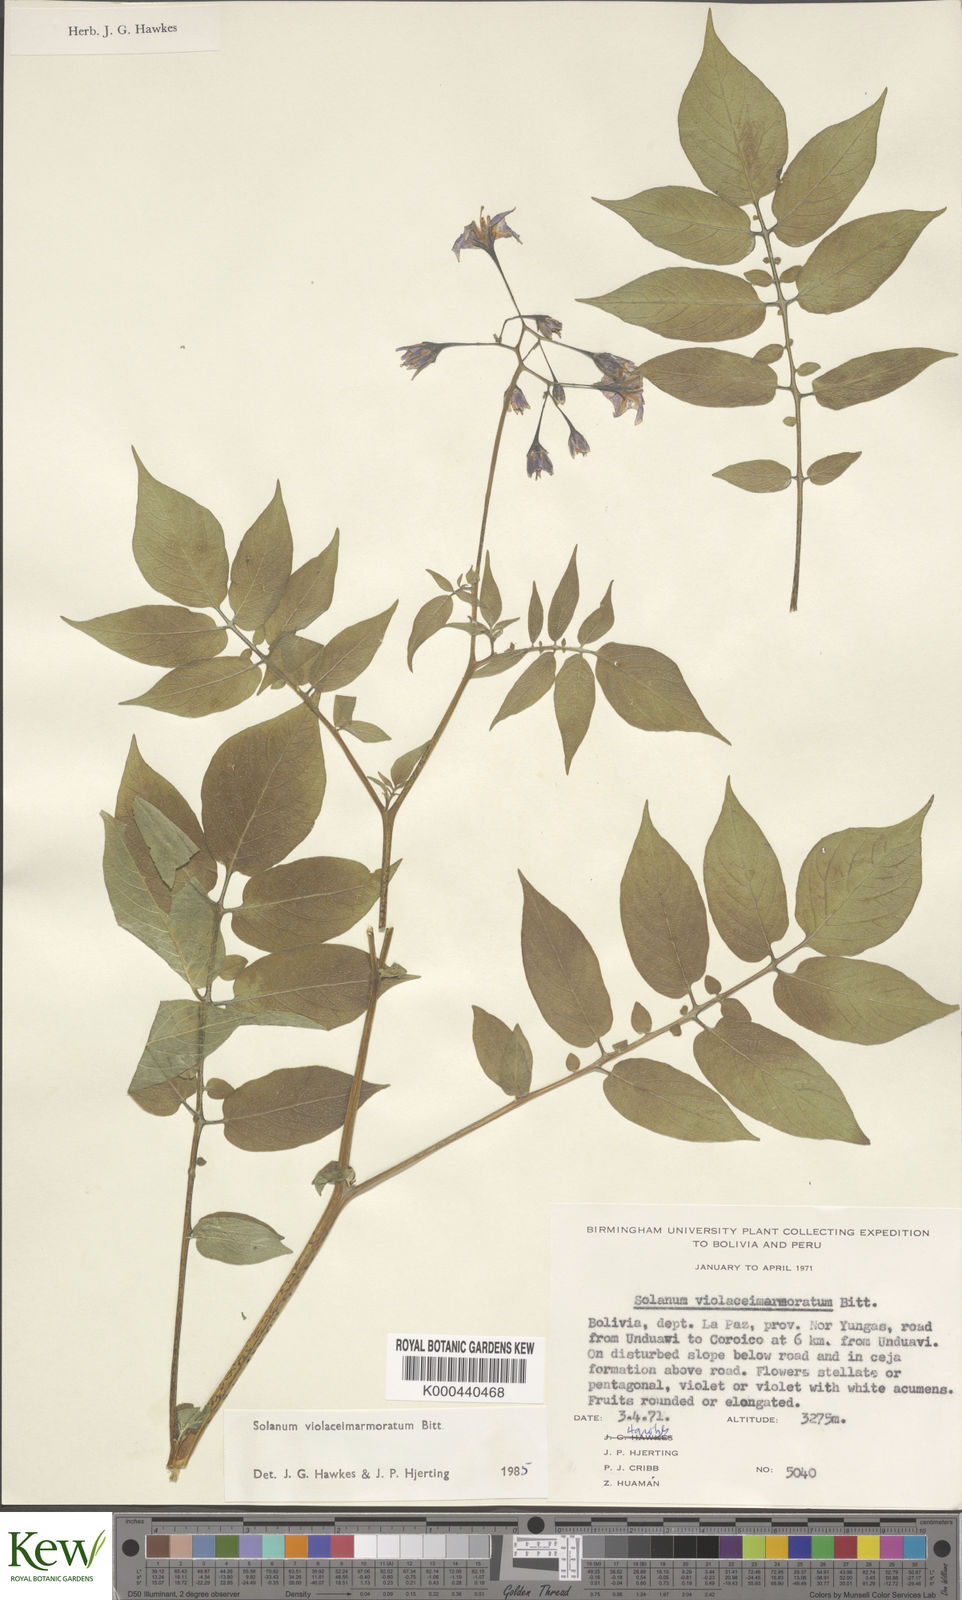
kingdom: Plantae
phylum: Tracheophyta
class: Magnoliopsida
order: Solanales
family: Solanaceae
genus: Solanum
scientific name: Solanum violaceimarmoratum
